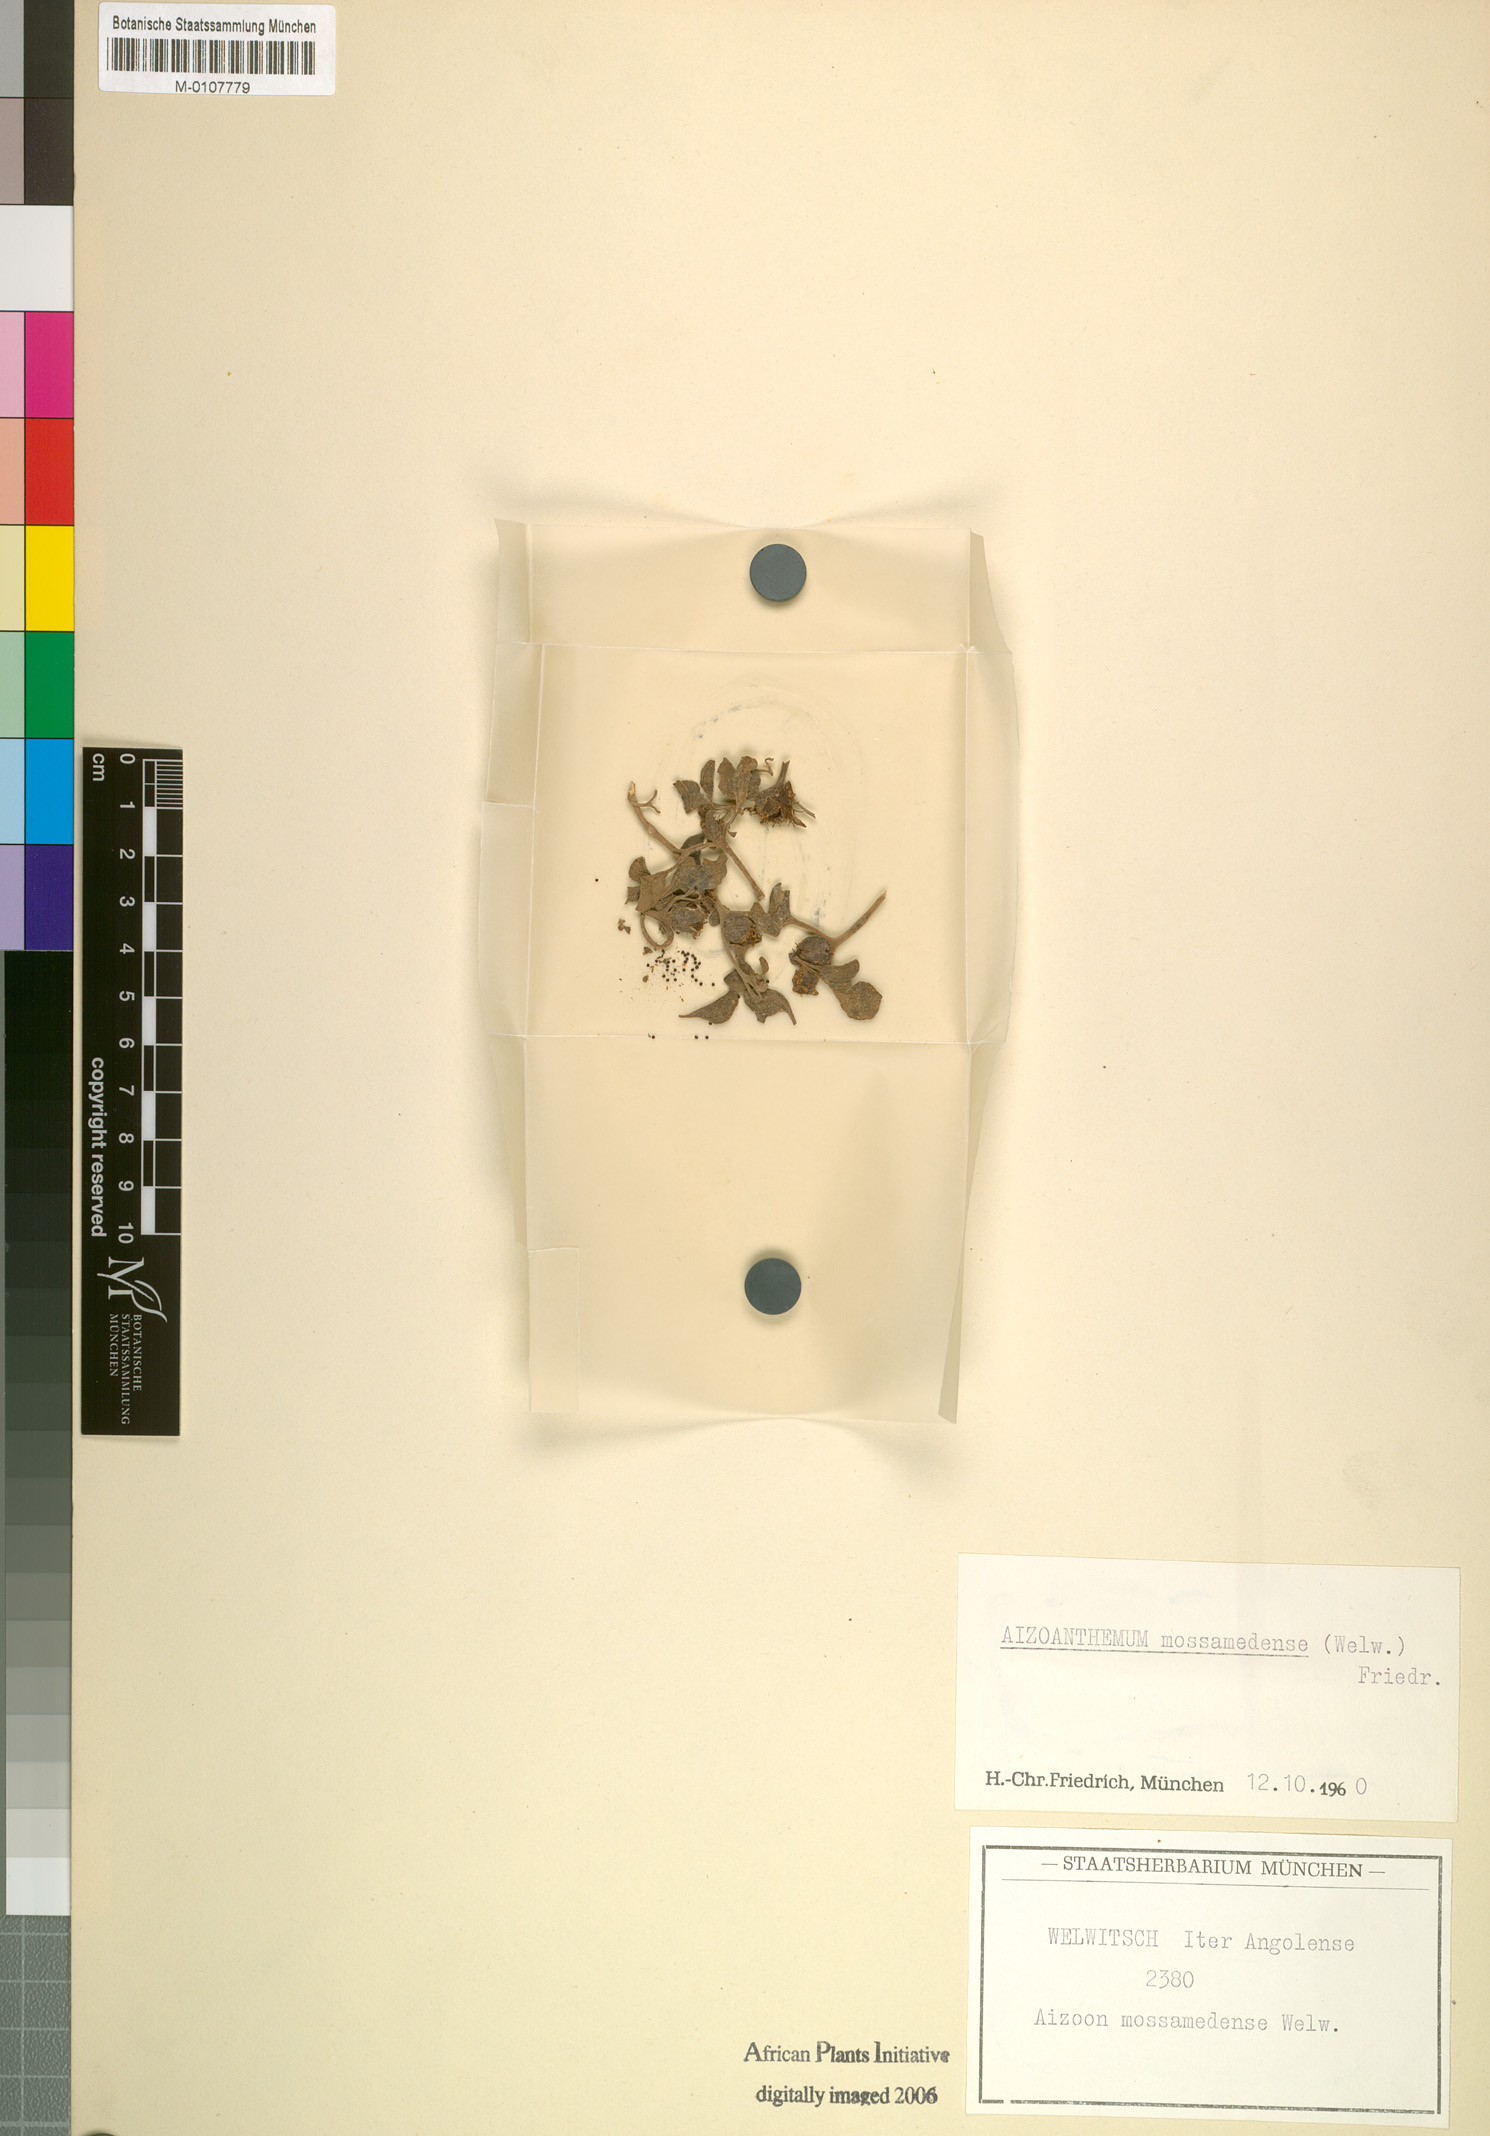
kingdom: Plantae
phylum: Tracheophyta
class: Magnoliopsida
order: Caryophyllales
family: Aizoaceae
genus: Aizoanthemum
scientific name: Aizoanthemum mossamedense
